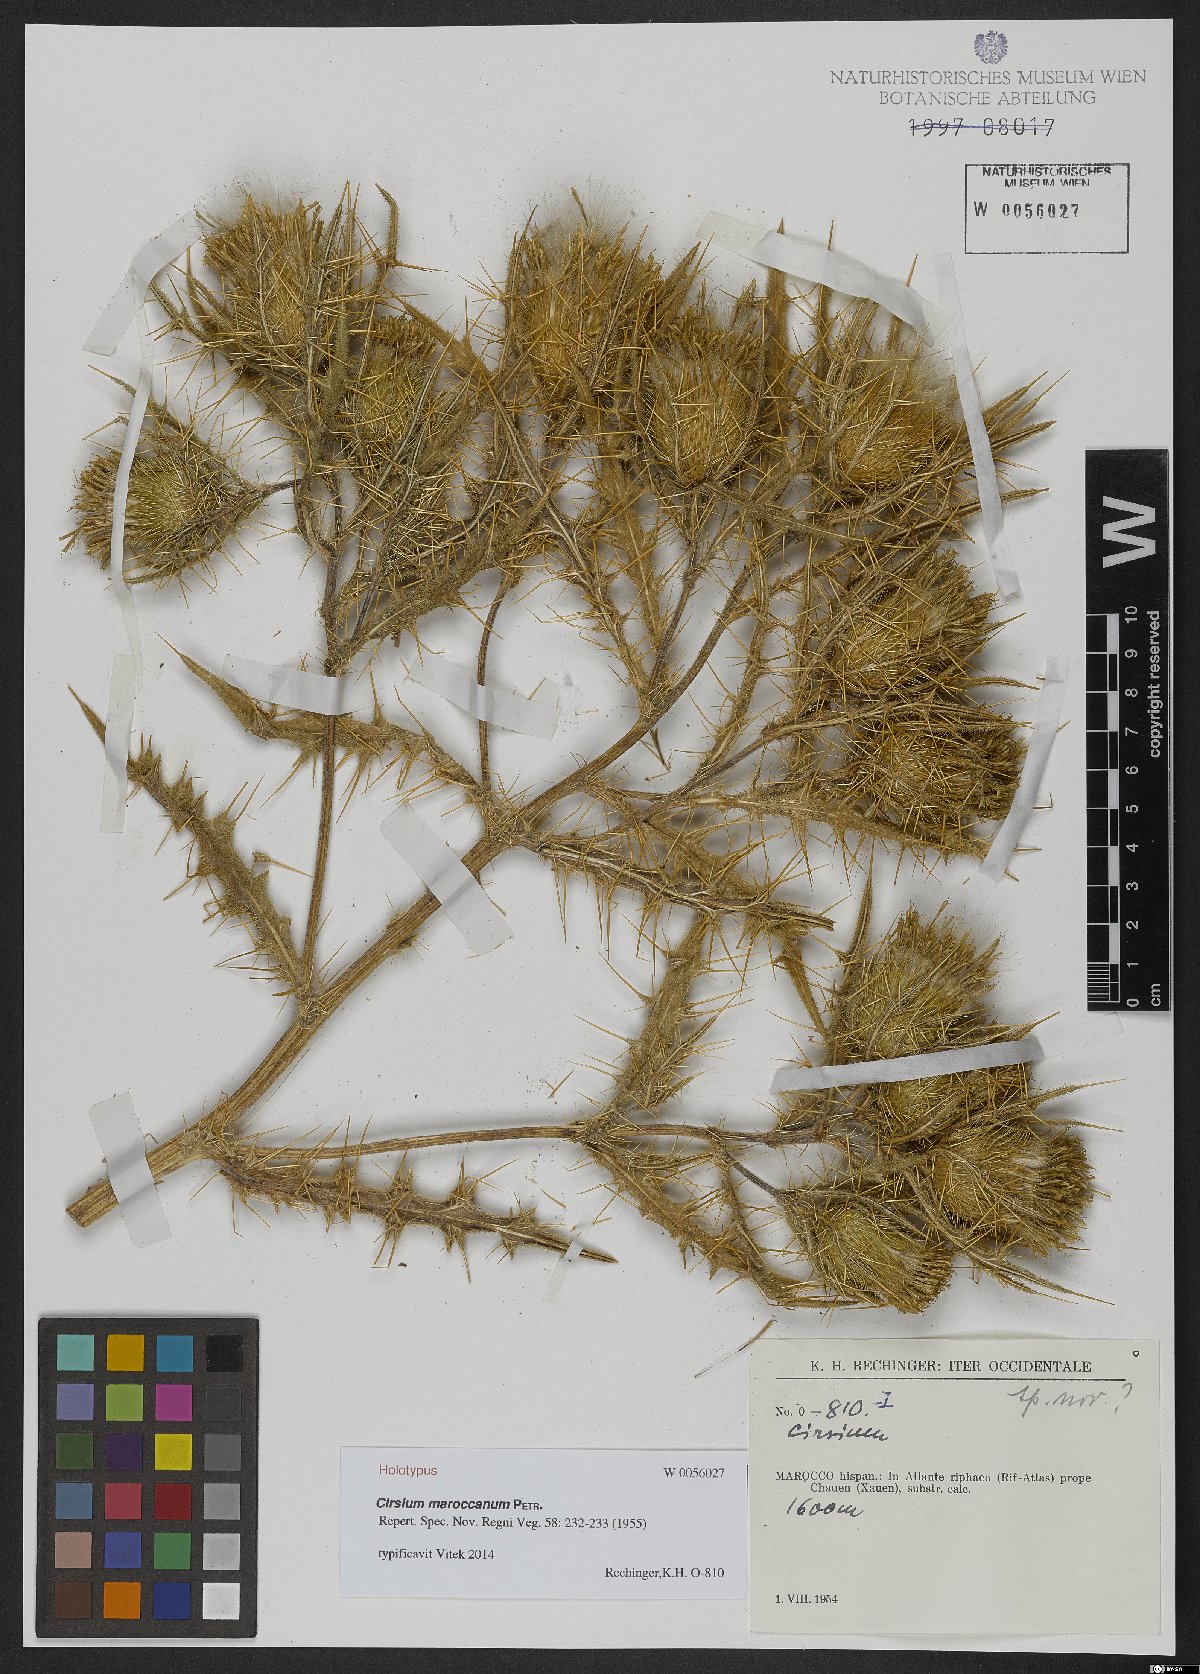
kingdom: Plantae
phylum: Tracheophyta
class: Magnoliopsida
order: Asterales
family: Asteraceae
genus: Lophiolepis
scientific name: Lophiolepis maroccana
